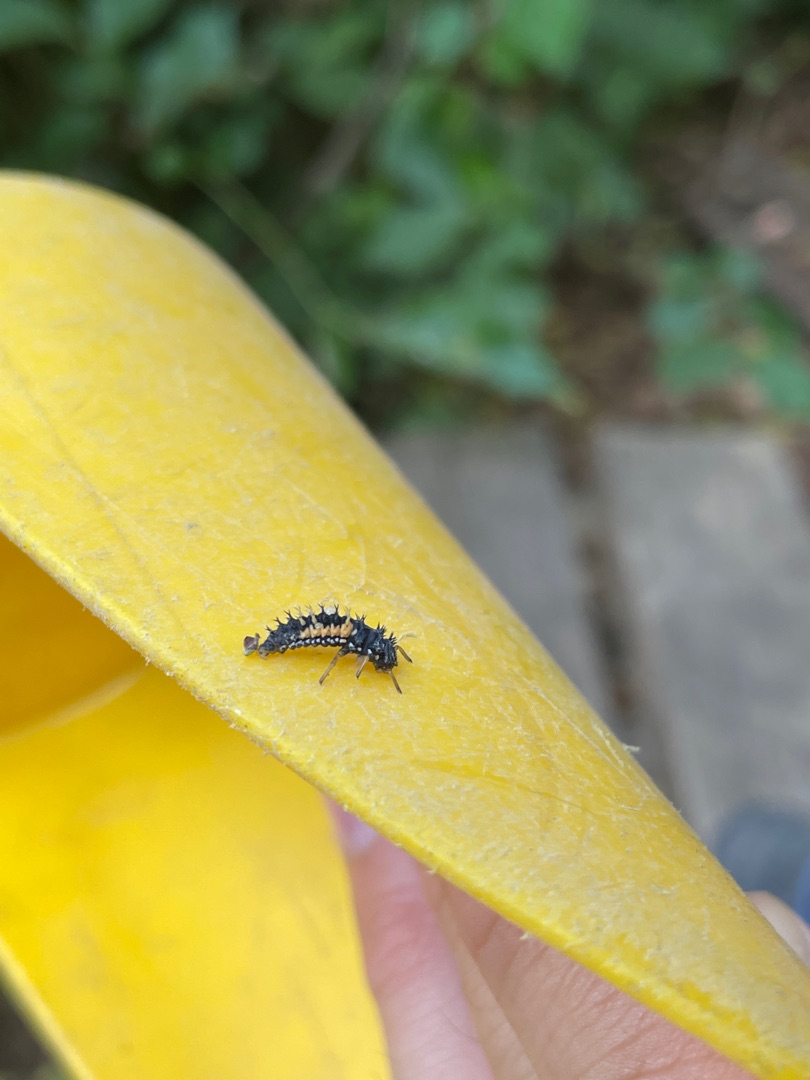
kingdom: Animalia
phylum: Arthropoda
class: Insecta
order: Coleoptera
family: Coccinellidae
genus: Harmonia
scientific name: Harmonia axyridis
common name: Harlekinmariehøne
